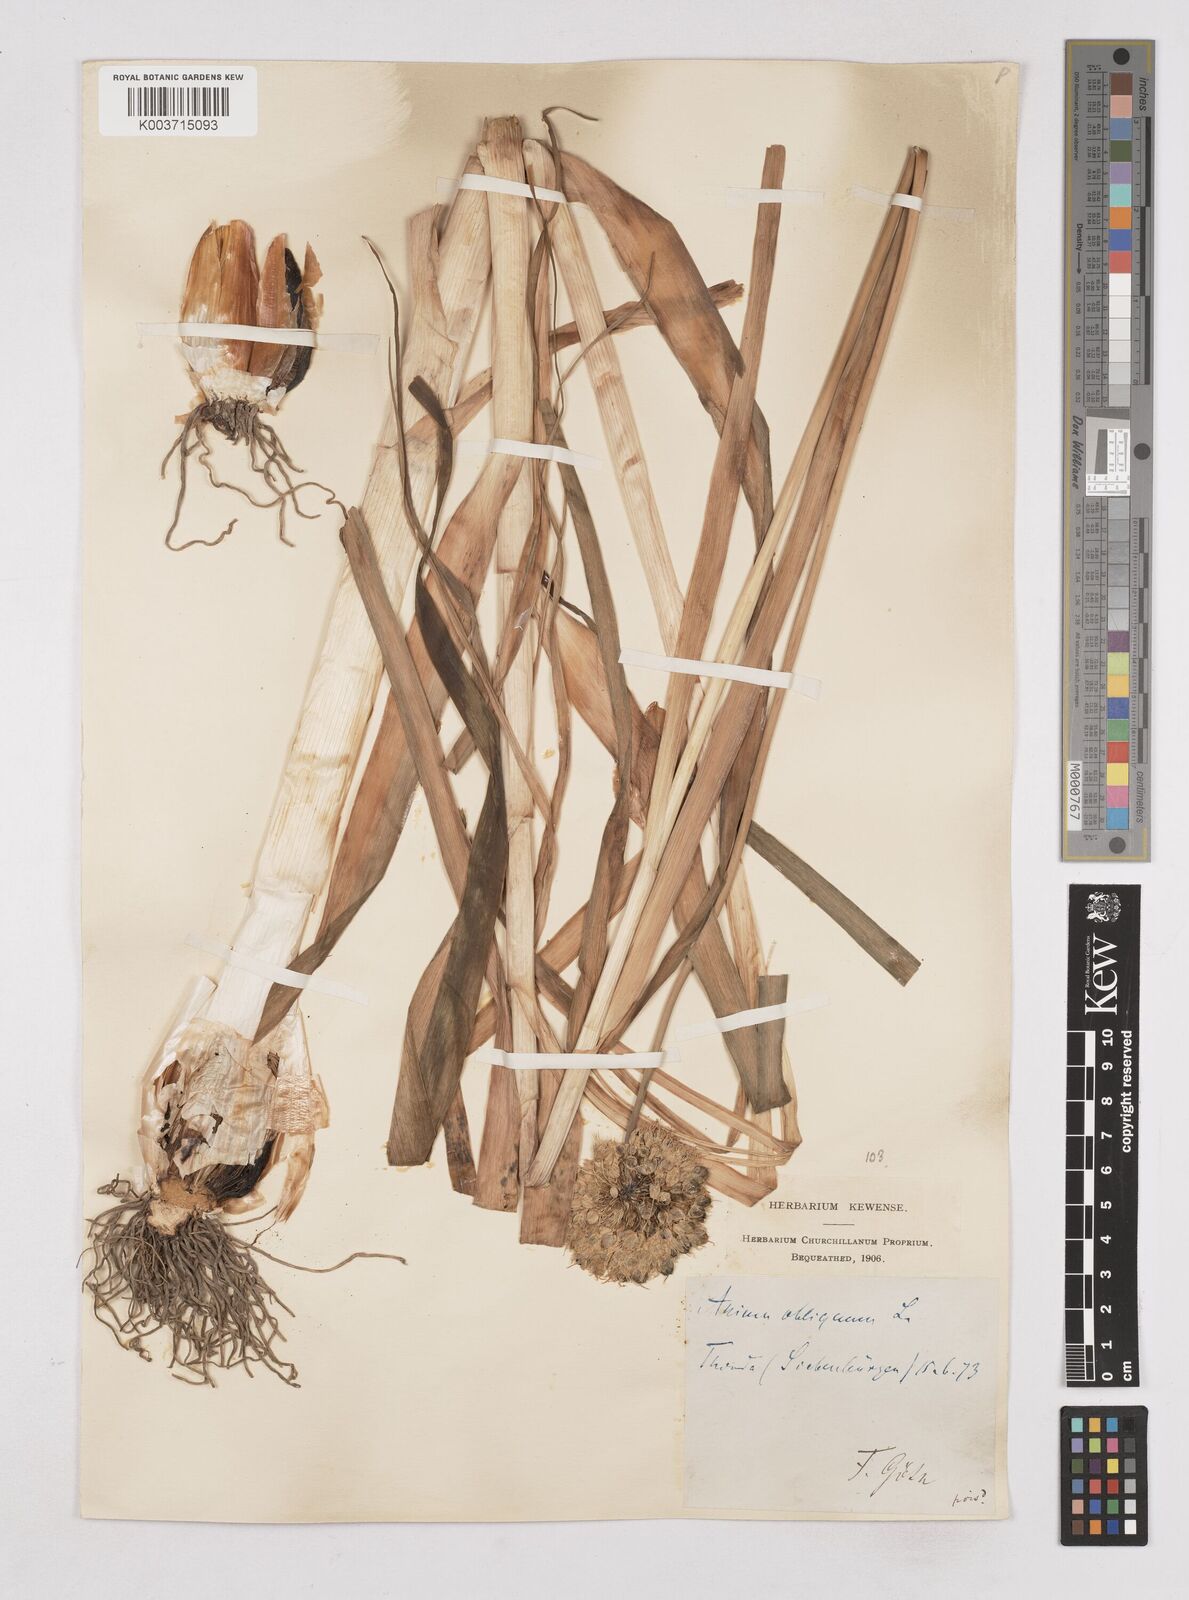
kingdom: Plantae
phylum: Tracheophyta
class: Liliopsida
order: Asparagales
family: Amaryllidaceae
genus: Allium
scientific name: Allium obliquum
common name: Oblique onion
